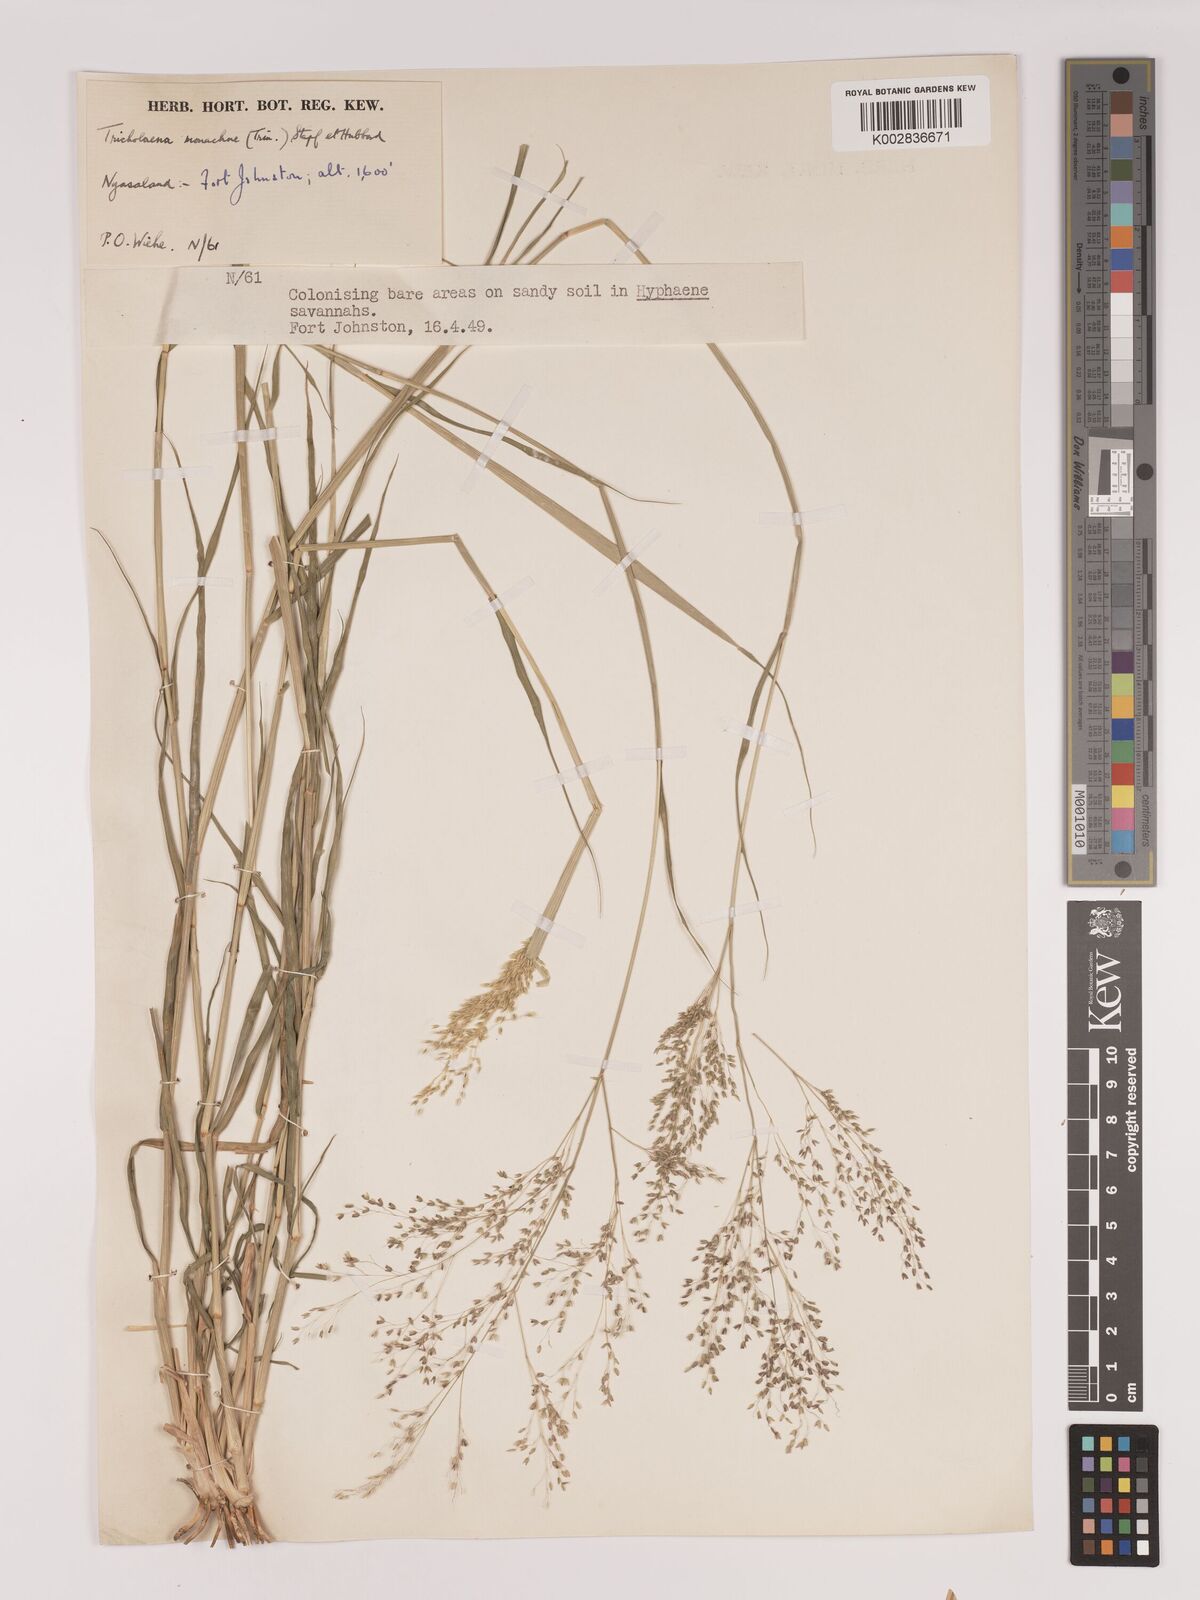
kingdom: Plantae
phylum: Tracheophyta
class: Liliopsida
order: Poales
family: Poaceae
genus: Tricholaena
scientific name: Tricholaena monachne
